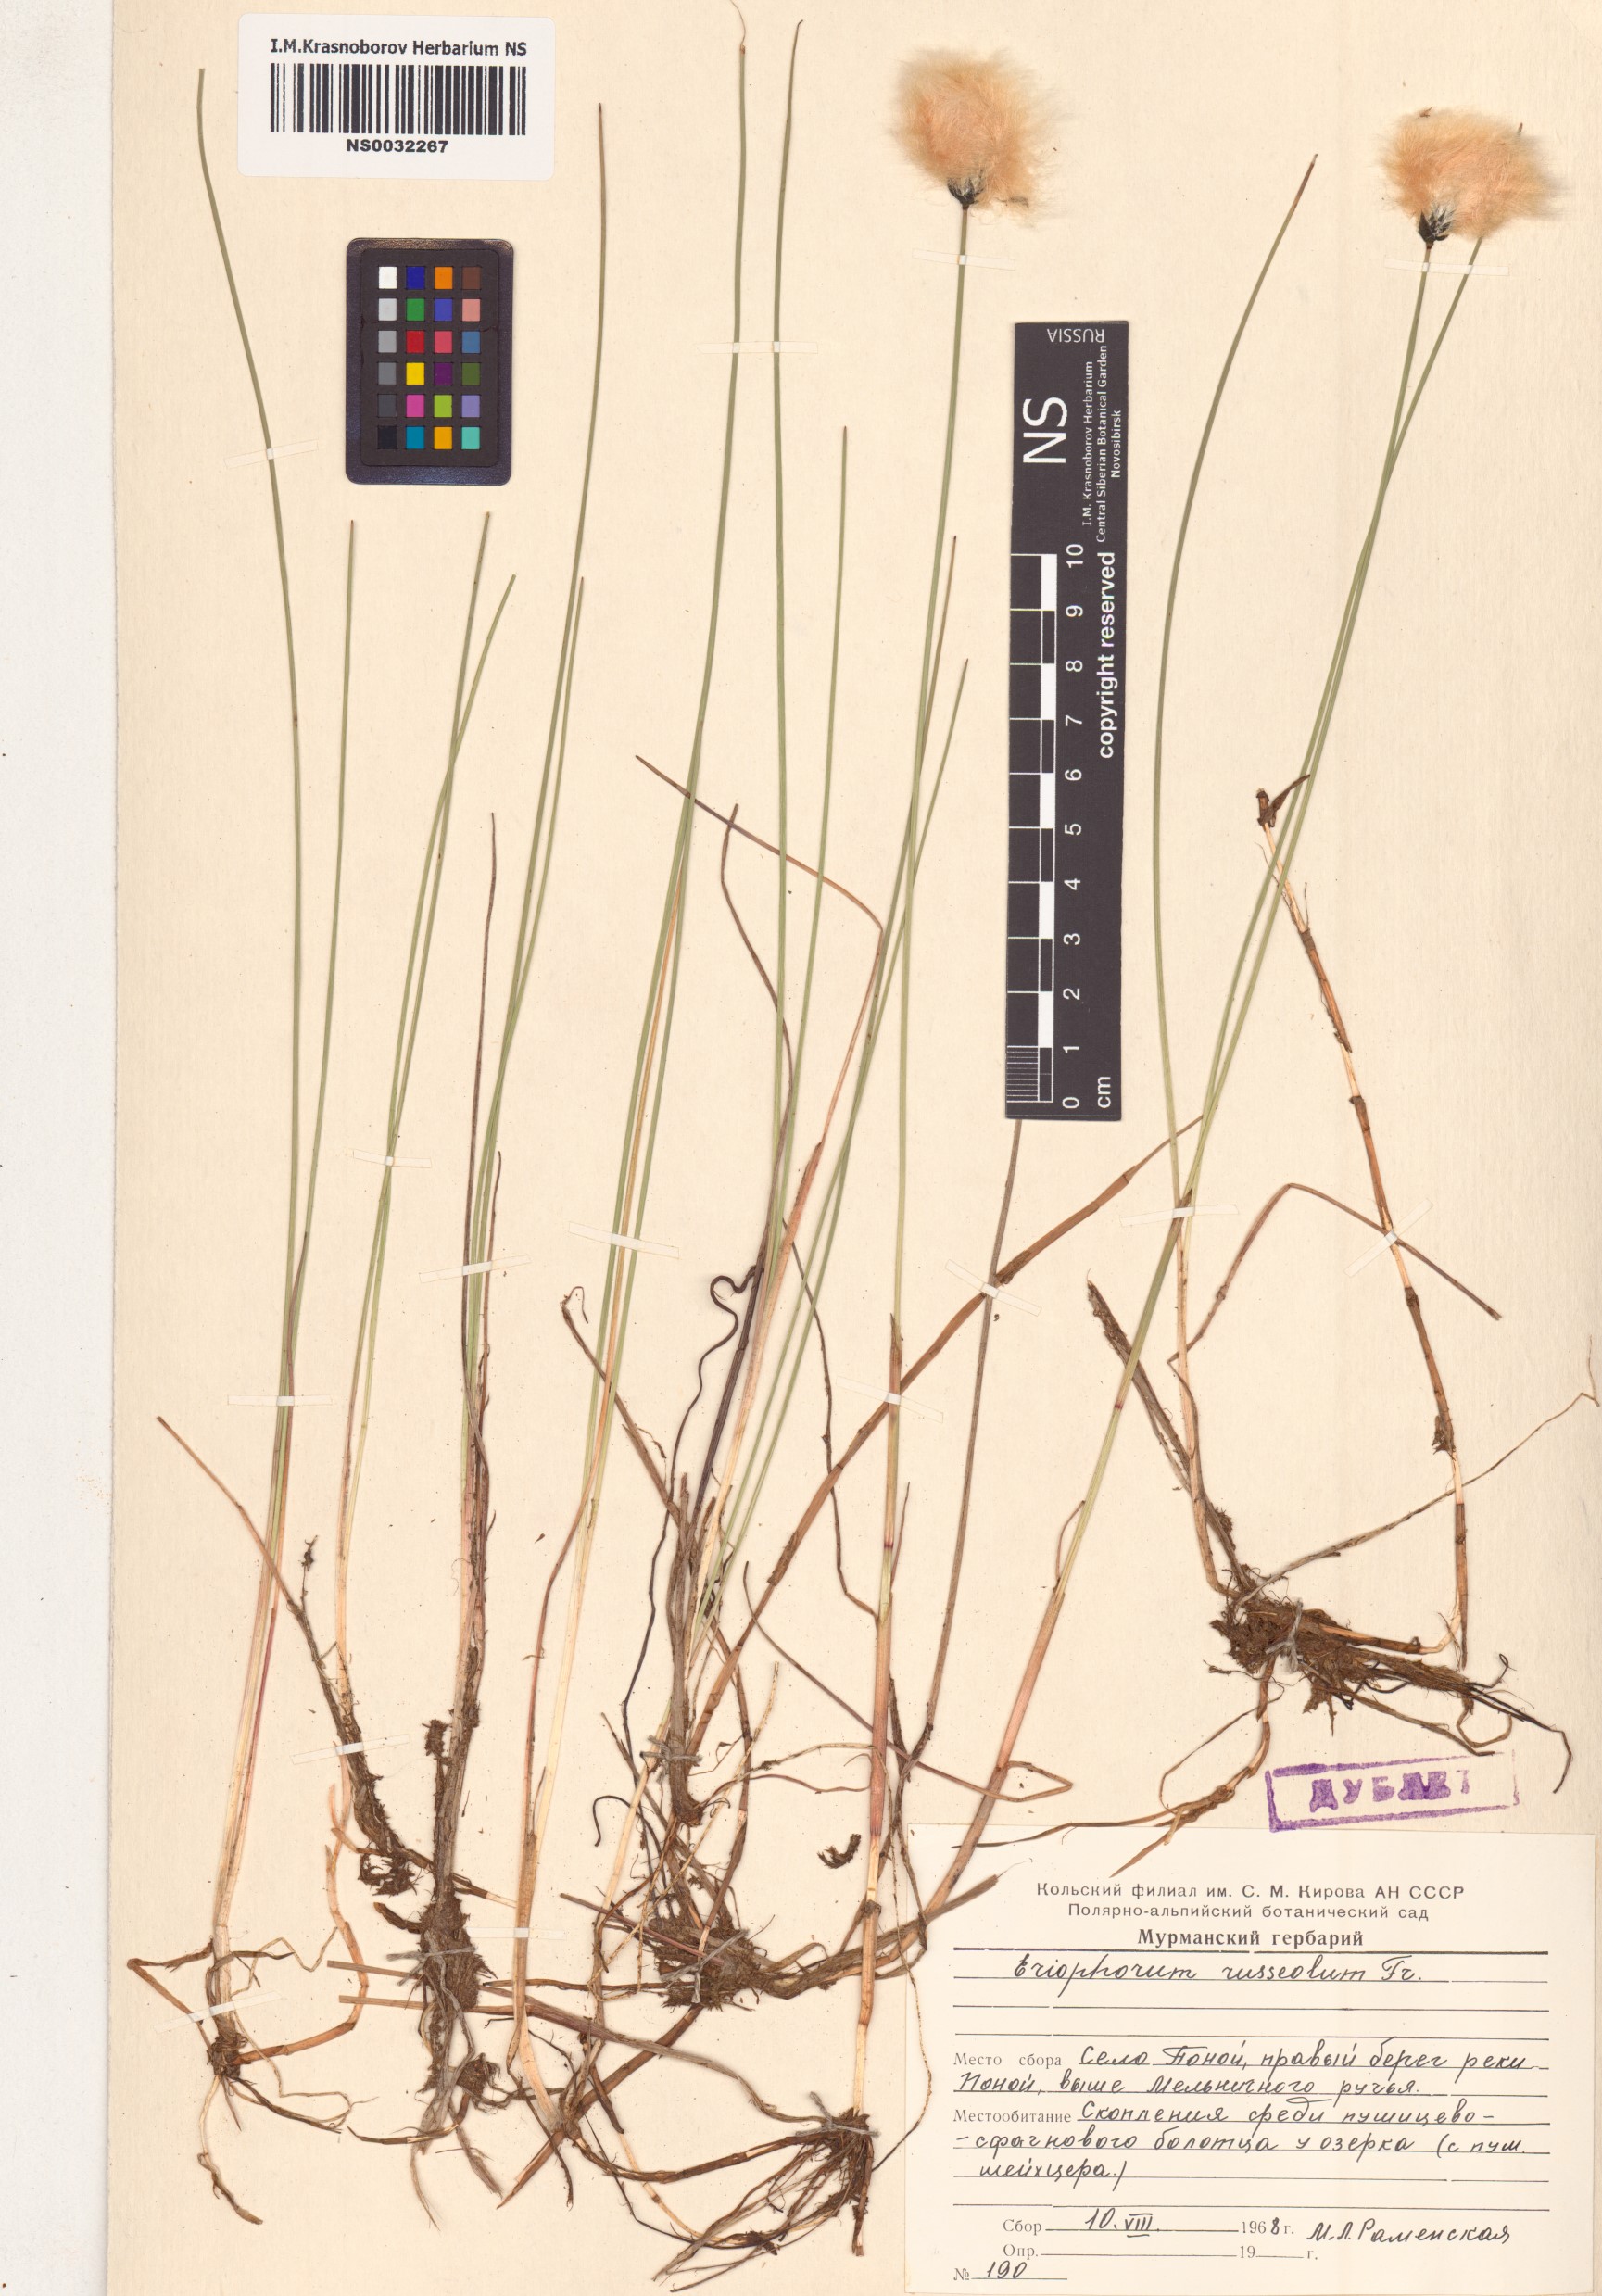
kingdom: Plantae
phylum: Tracheophyta
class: Liliopsida
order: Poales
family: Cyperaceae
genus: Eriophorum
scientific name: Eriophorum chamissonis
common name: Chamisso's cottongrass
